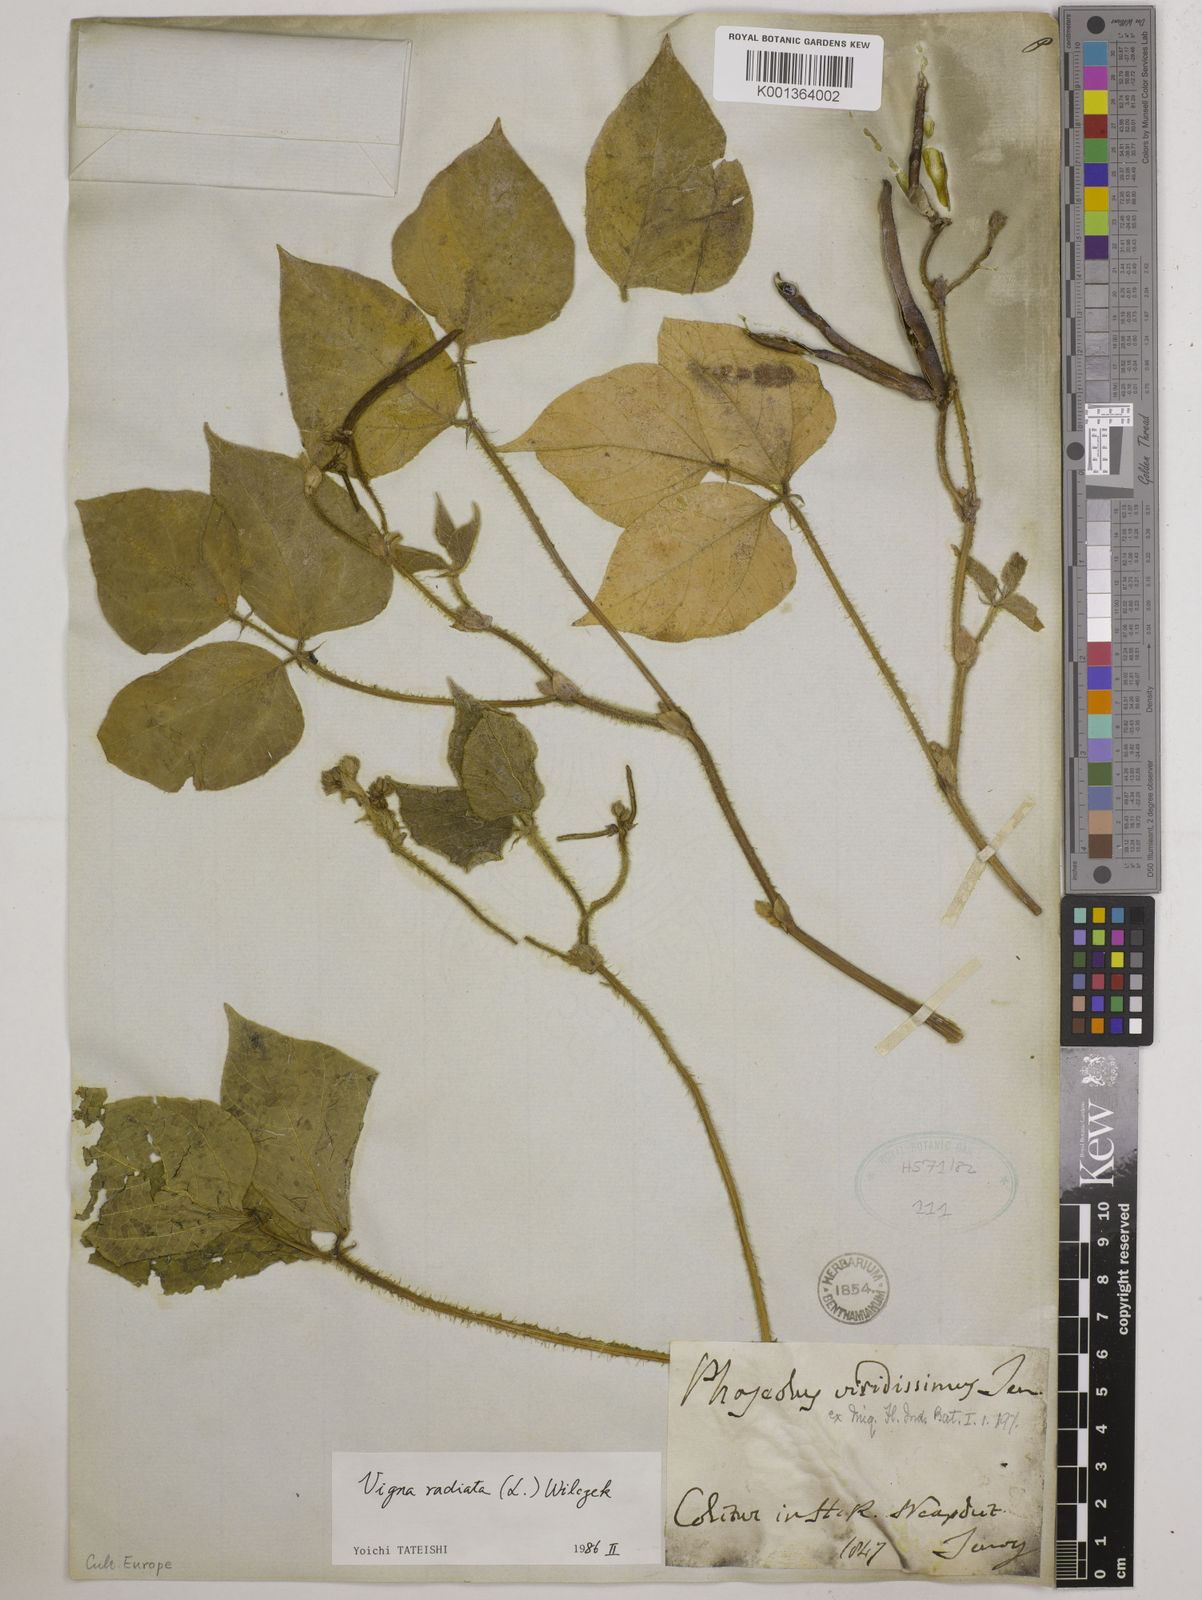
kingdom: Plantae
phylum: Tracheophyta
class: Magnoliopsida
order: Fabales
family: Fabaceae
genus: Vigna
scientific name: Vigna radiata
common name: Mung-bean
